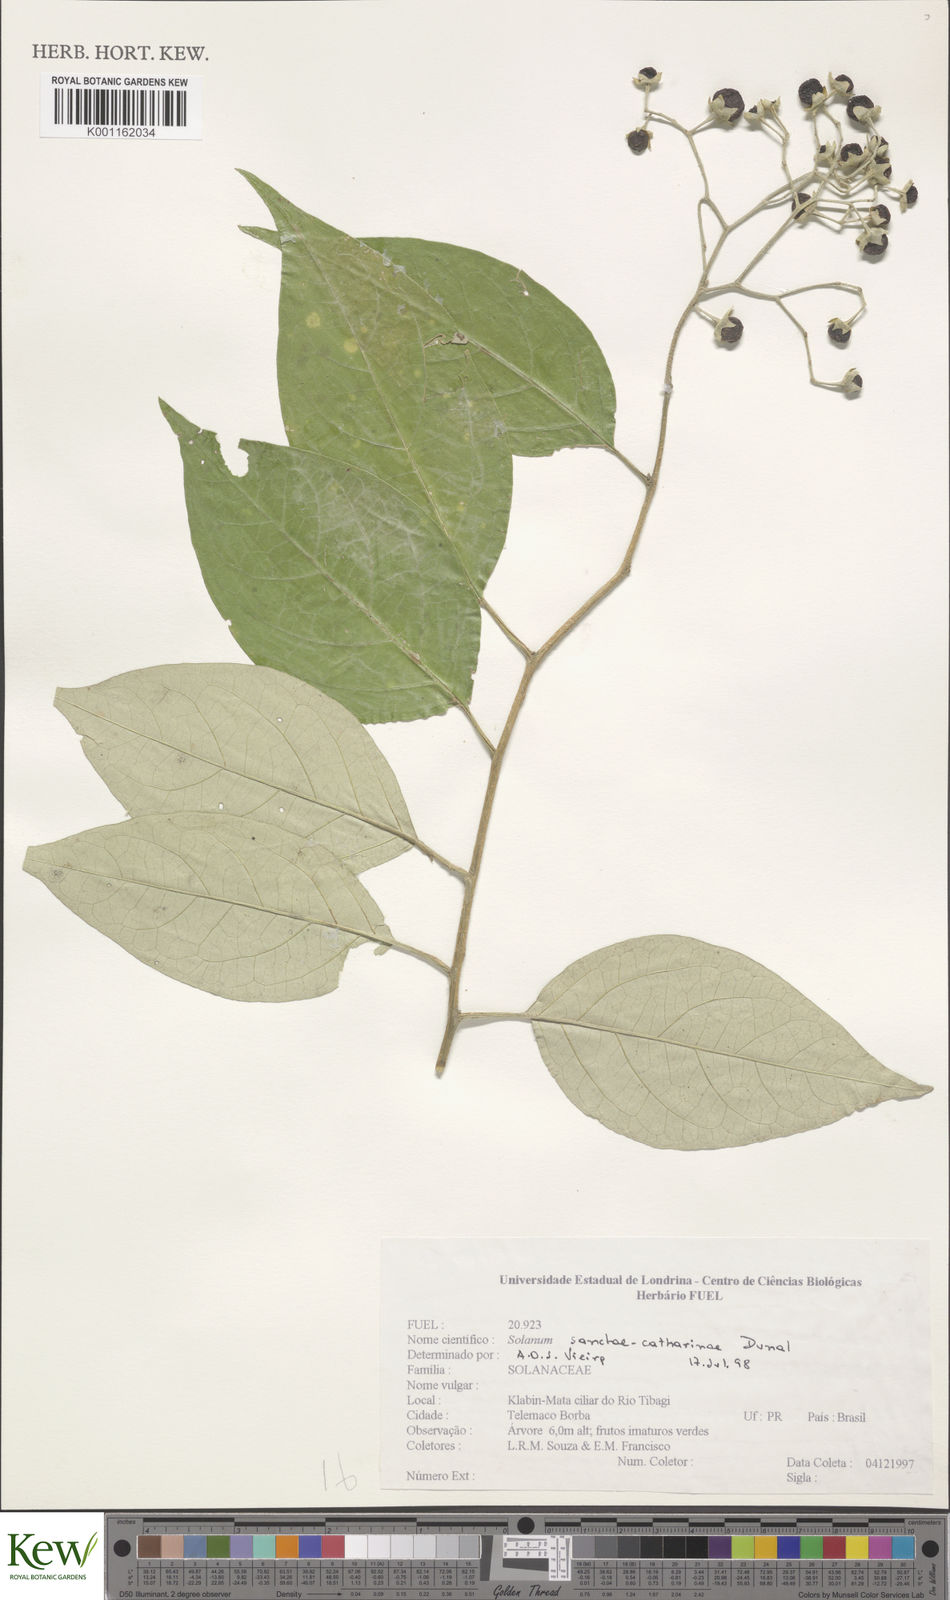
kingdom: Plantae
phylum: Tracheophyta
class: Magnoliopsida
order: Solanales
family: Solanaceae
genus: Solanum
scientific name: Solanum sanctae-catharinae
